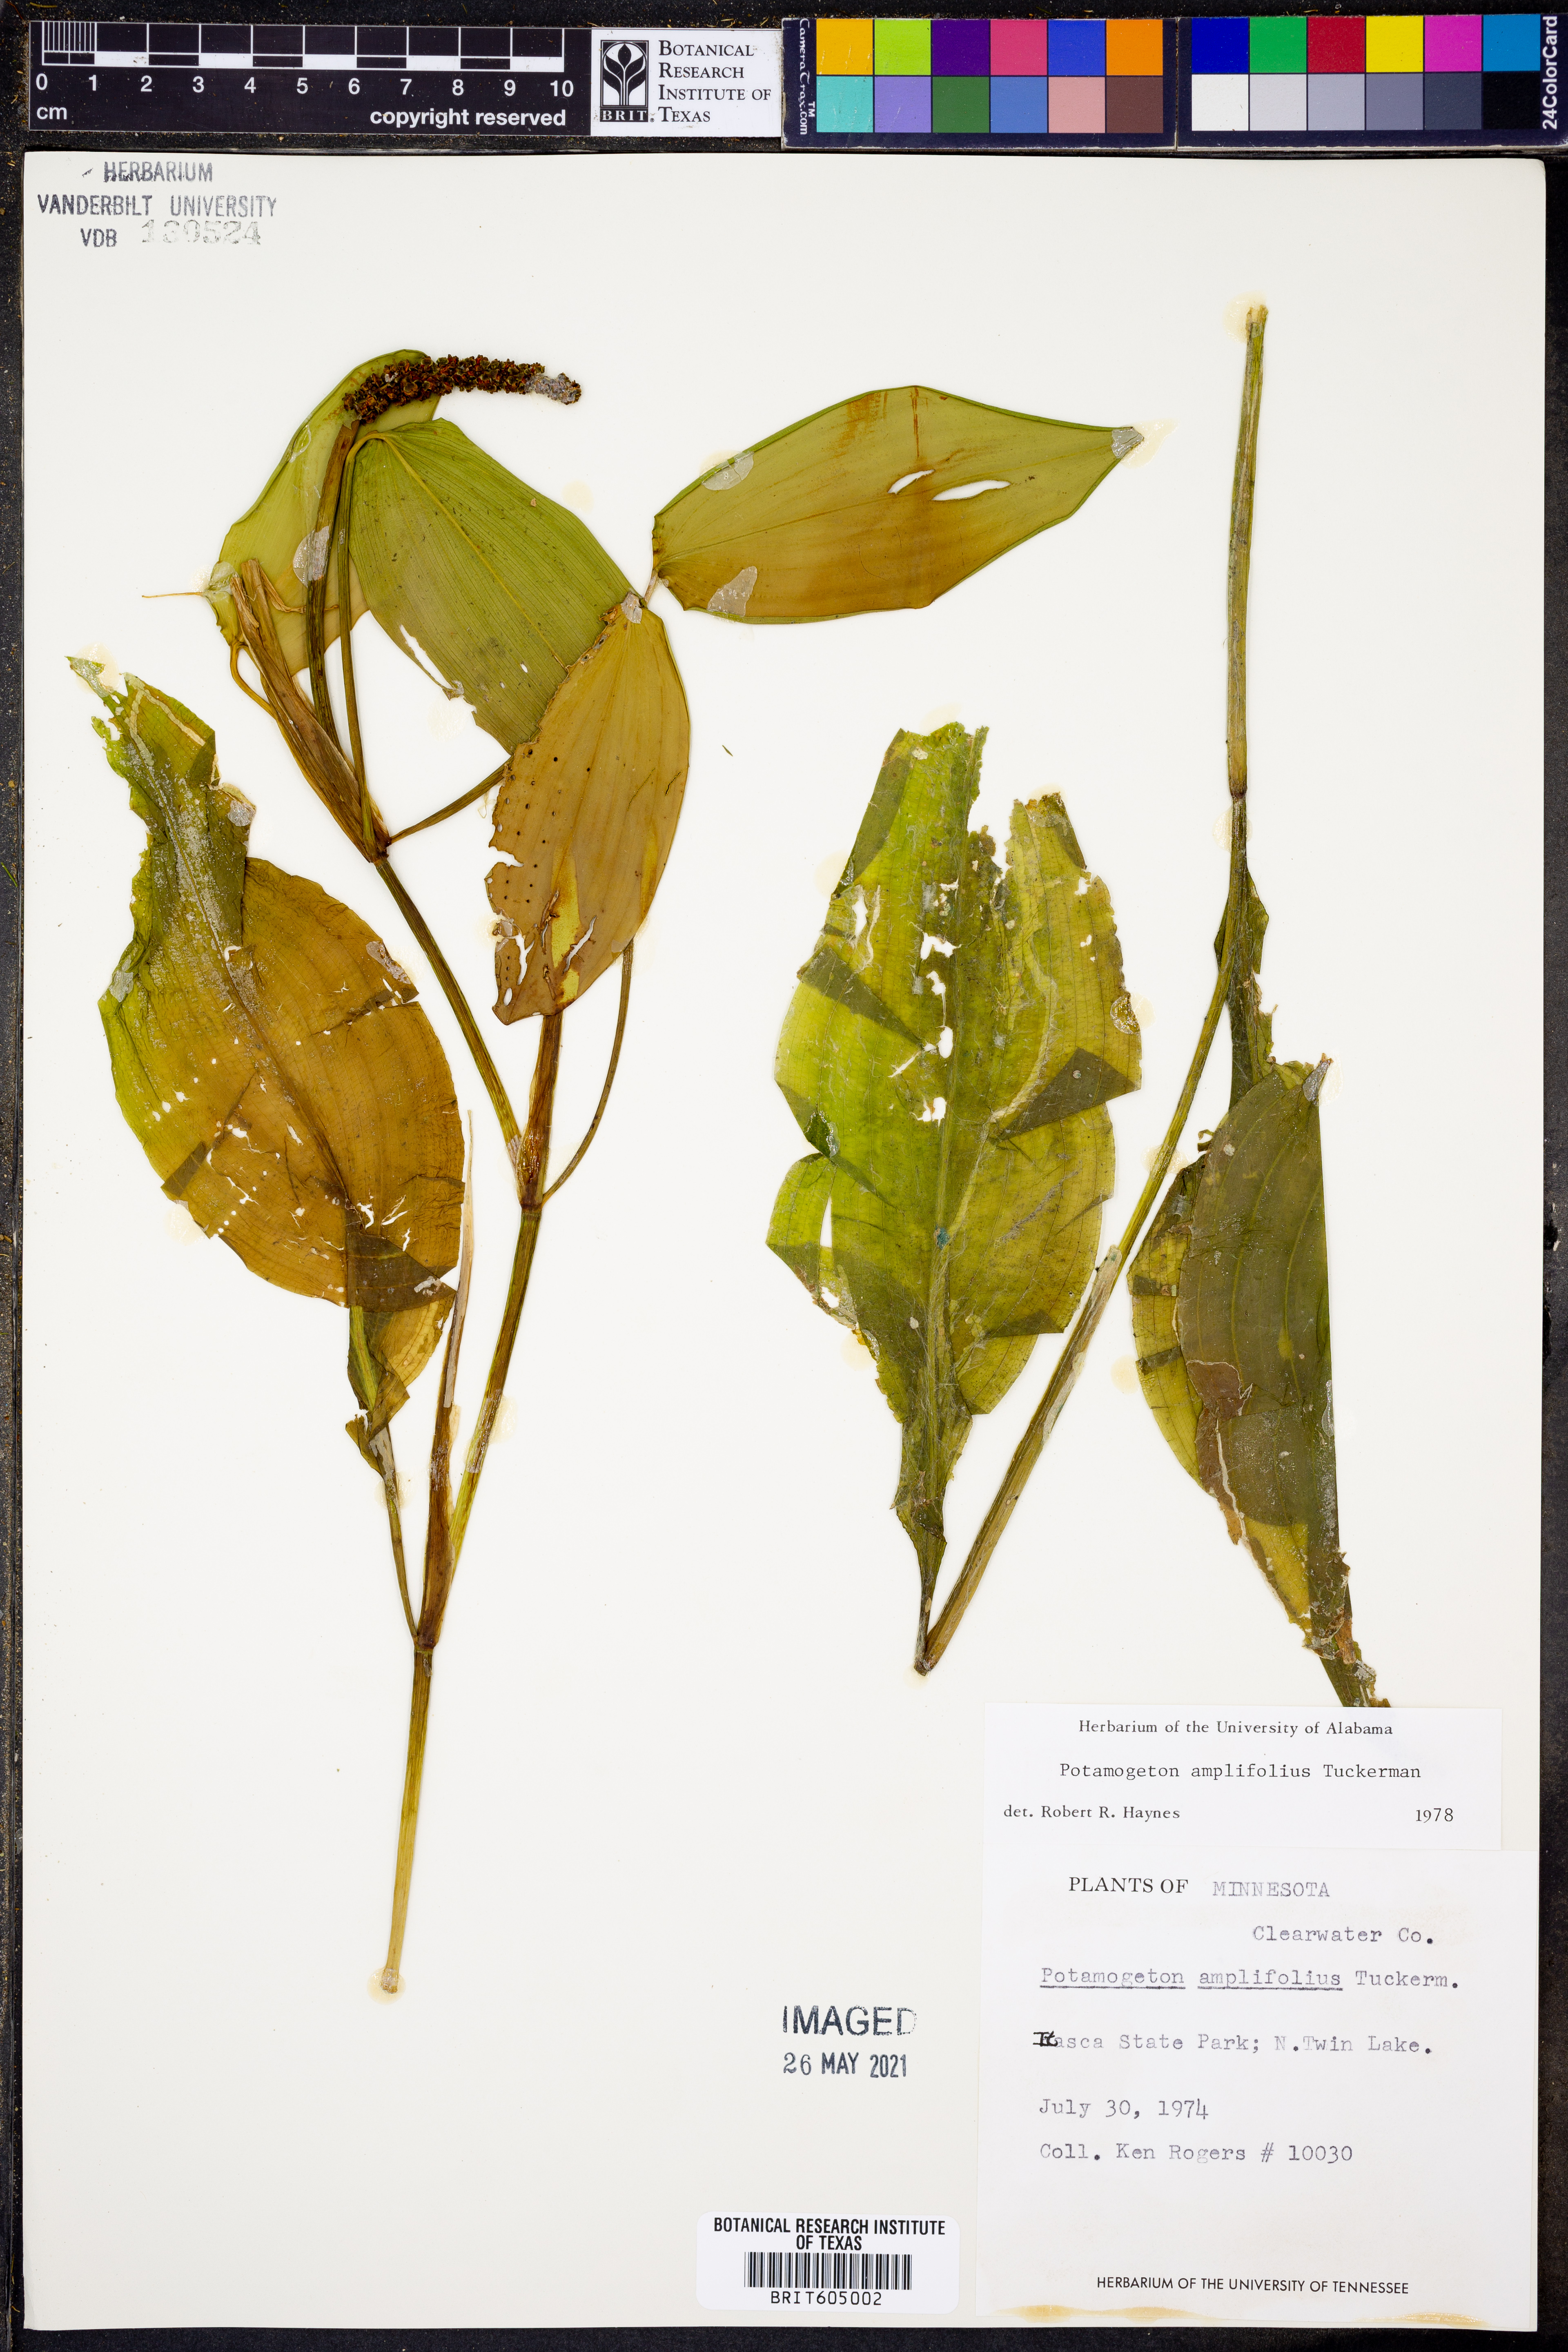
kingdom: Plantae
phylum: Tracheophyta
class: Liliopsida
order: Alismatales
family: Potamogetonaceae
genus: Potamogeton
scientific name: Potamogeton amplifolius
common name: Broad-leaved pondweed
